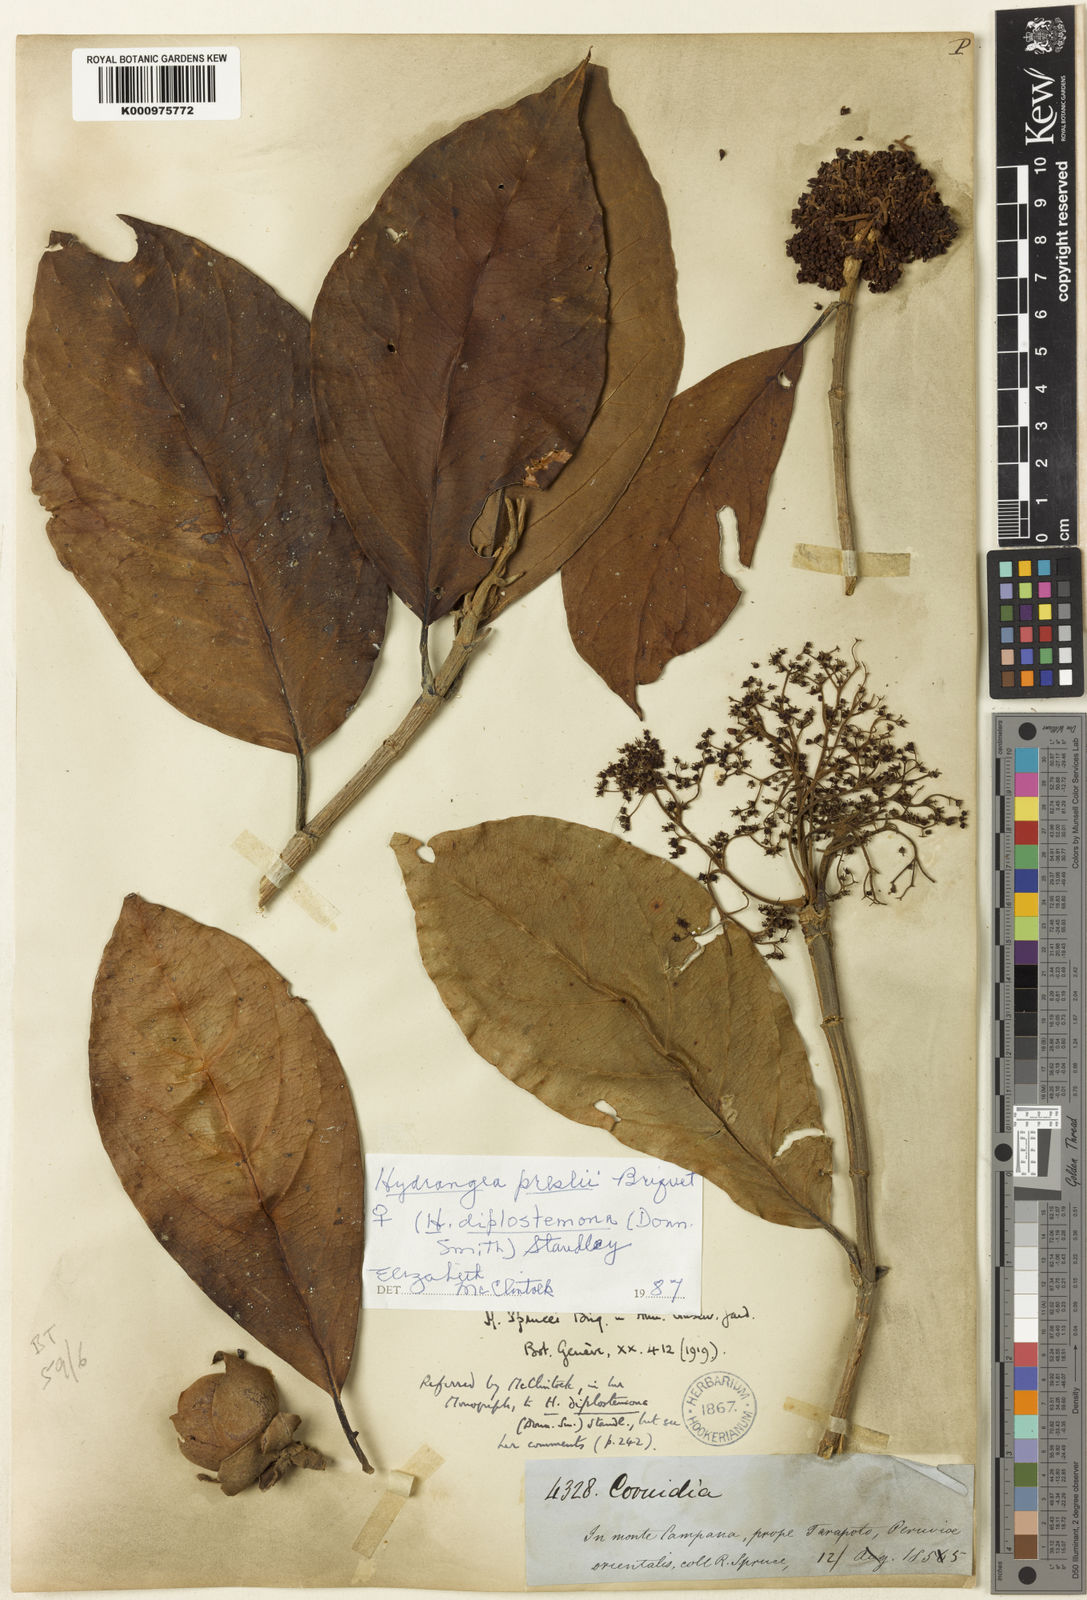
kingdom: Plantae
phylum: Tracheophyta
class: Magnoliopsida
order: Cornales
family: Hydrangeaceae
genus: Hydrangea
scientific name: Hydrangea diplostemona
